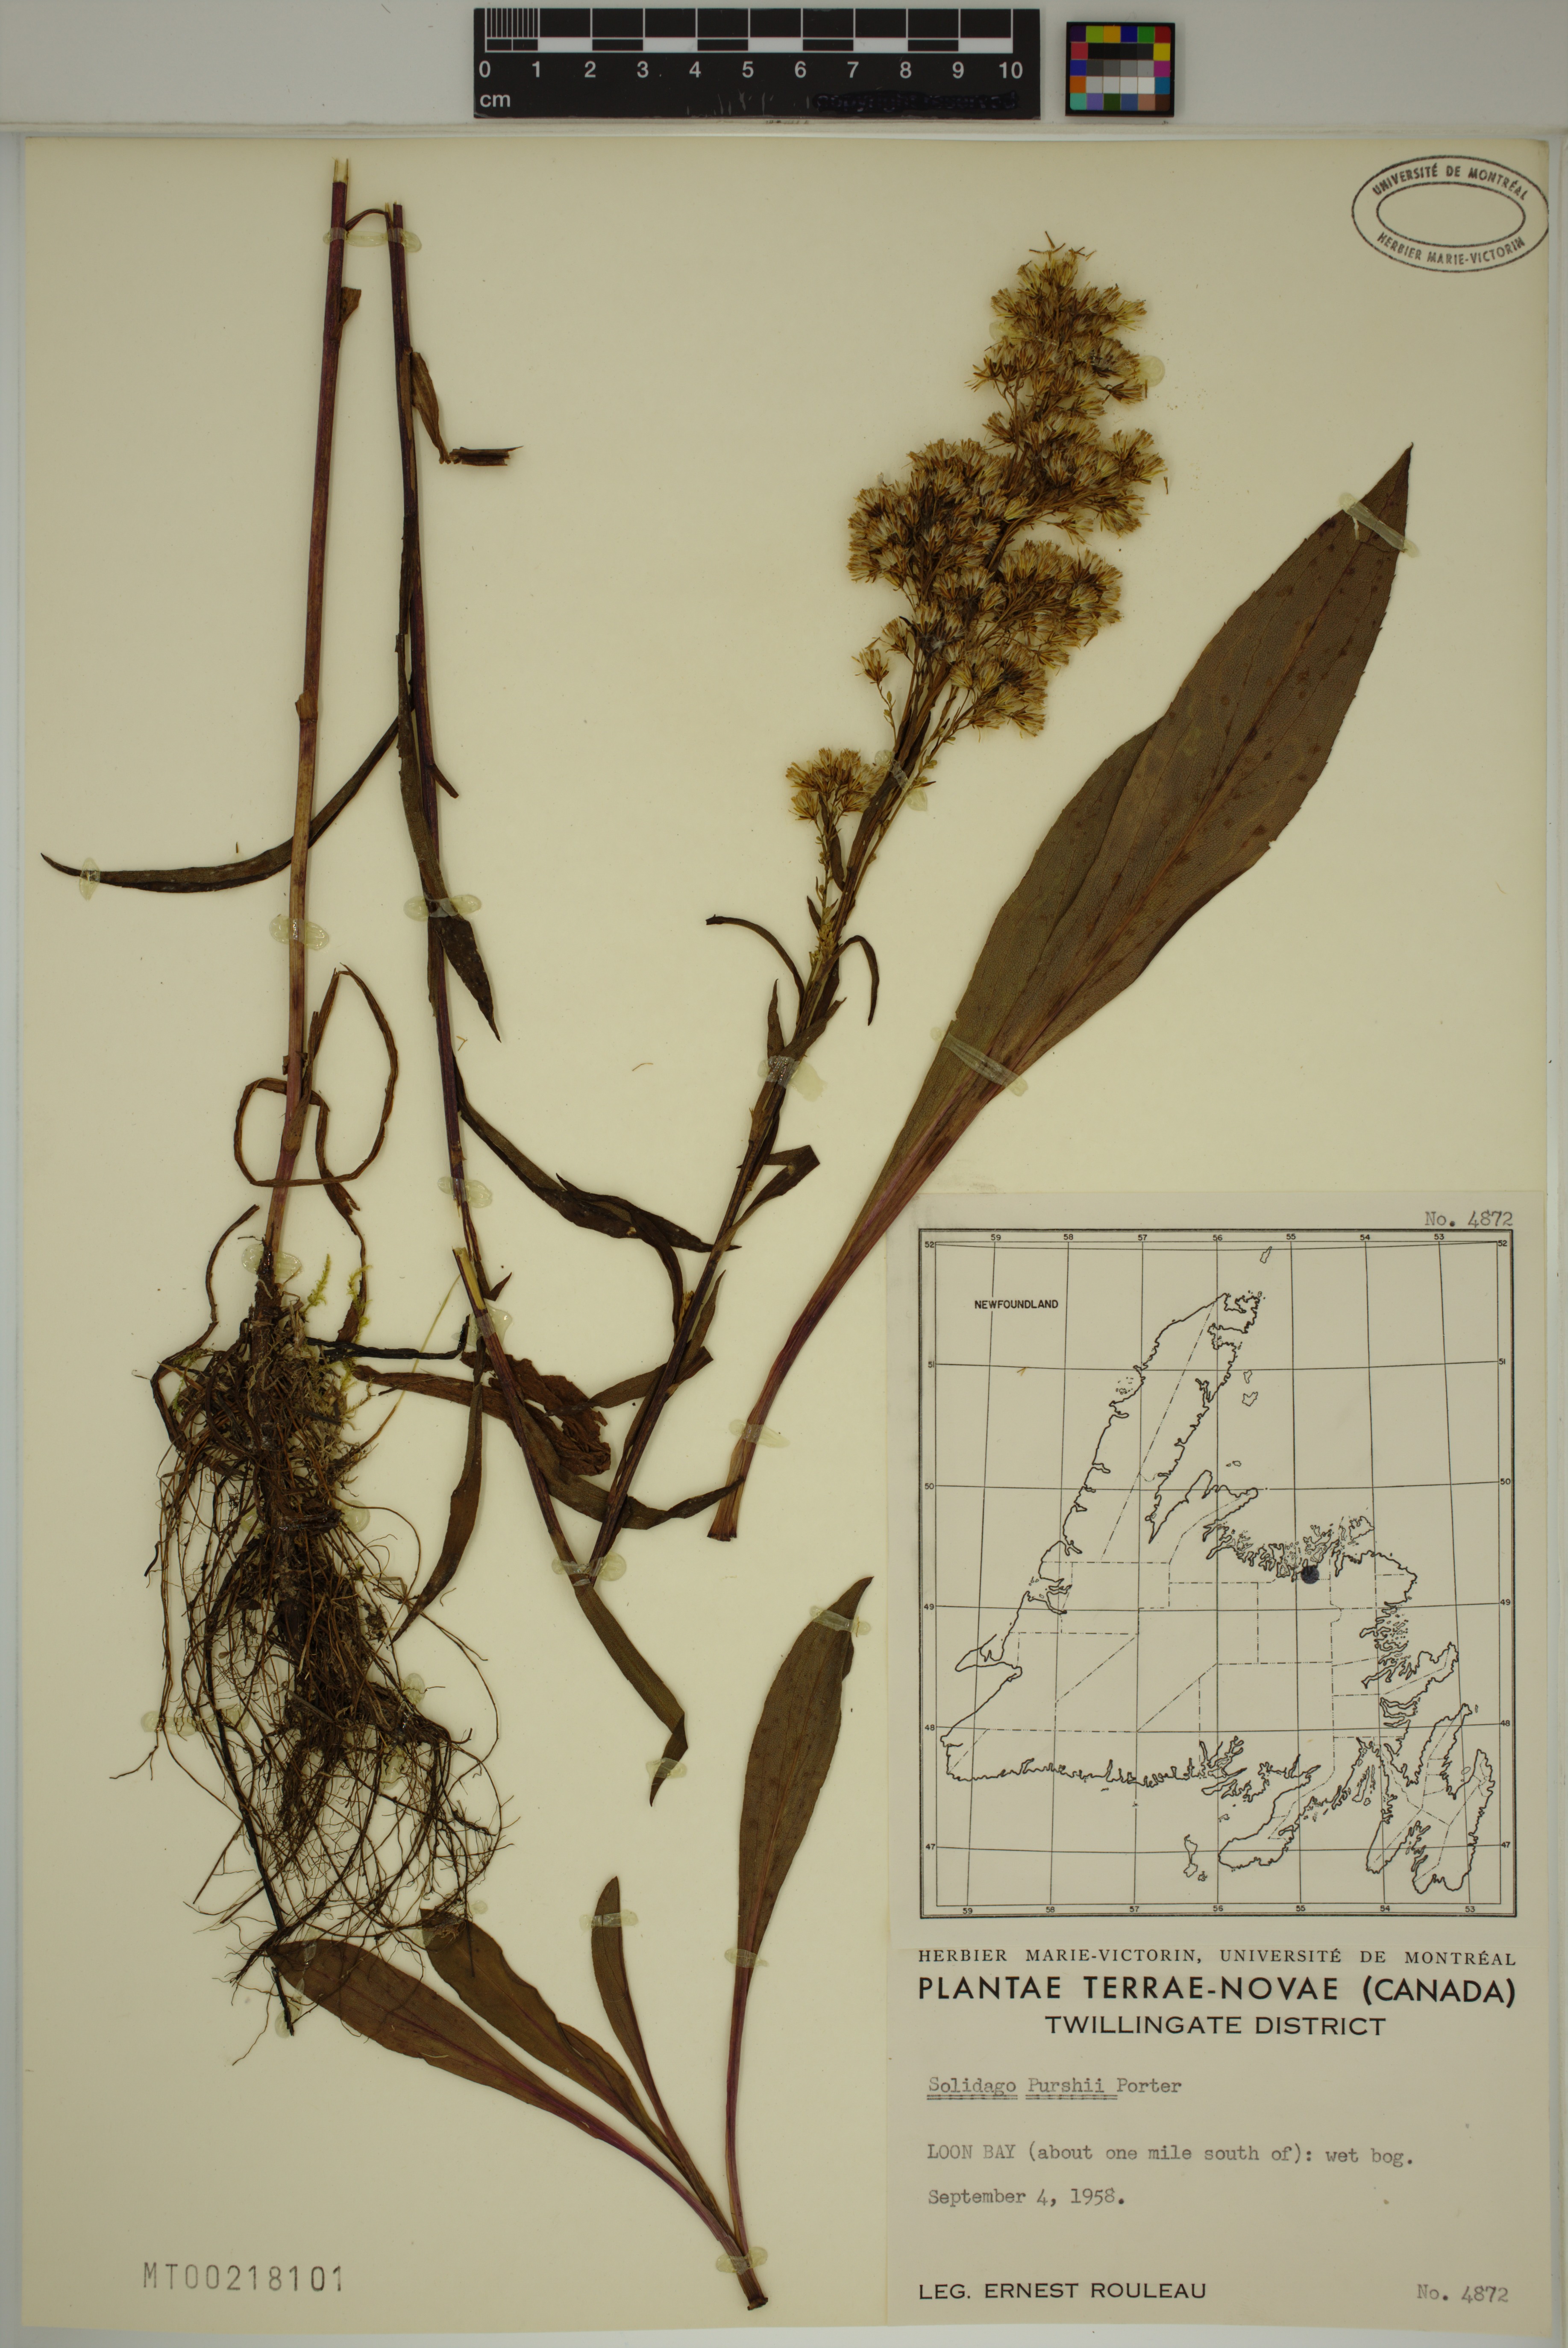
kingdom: Plantae
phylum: Tracheophyta
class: Magnoliopsida
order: Asterales
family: Asteraceae
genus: Solidago
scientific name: Solidago uliginosa
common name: Bog goldenrod
